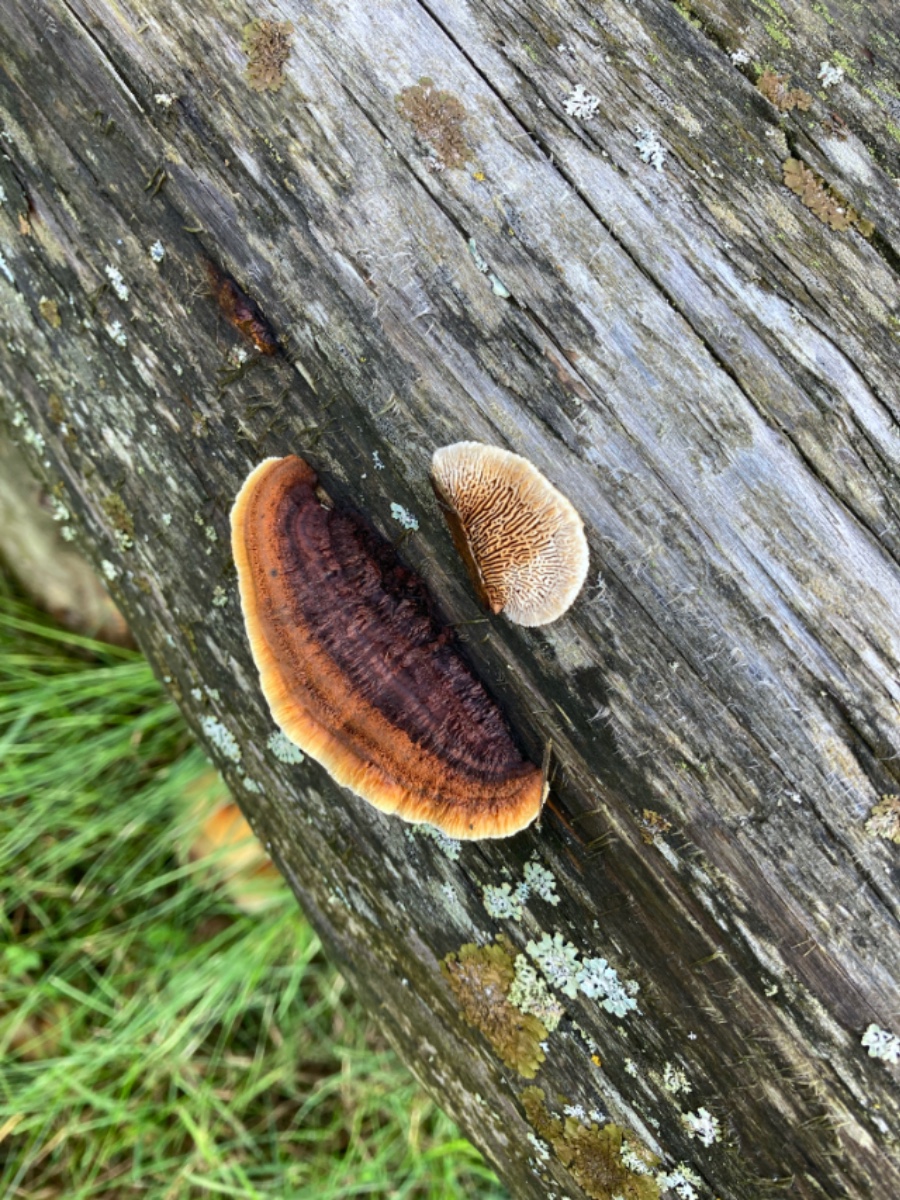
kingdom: Fungi
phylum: Basidiomycota
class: Agaricomycetes
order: Gloeophyllales
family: Gloeophyllaceae
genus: Gloeophyllum
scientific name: Gloeophyllum sepiarium
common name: fyrre-korkhat
